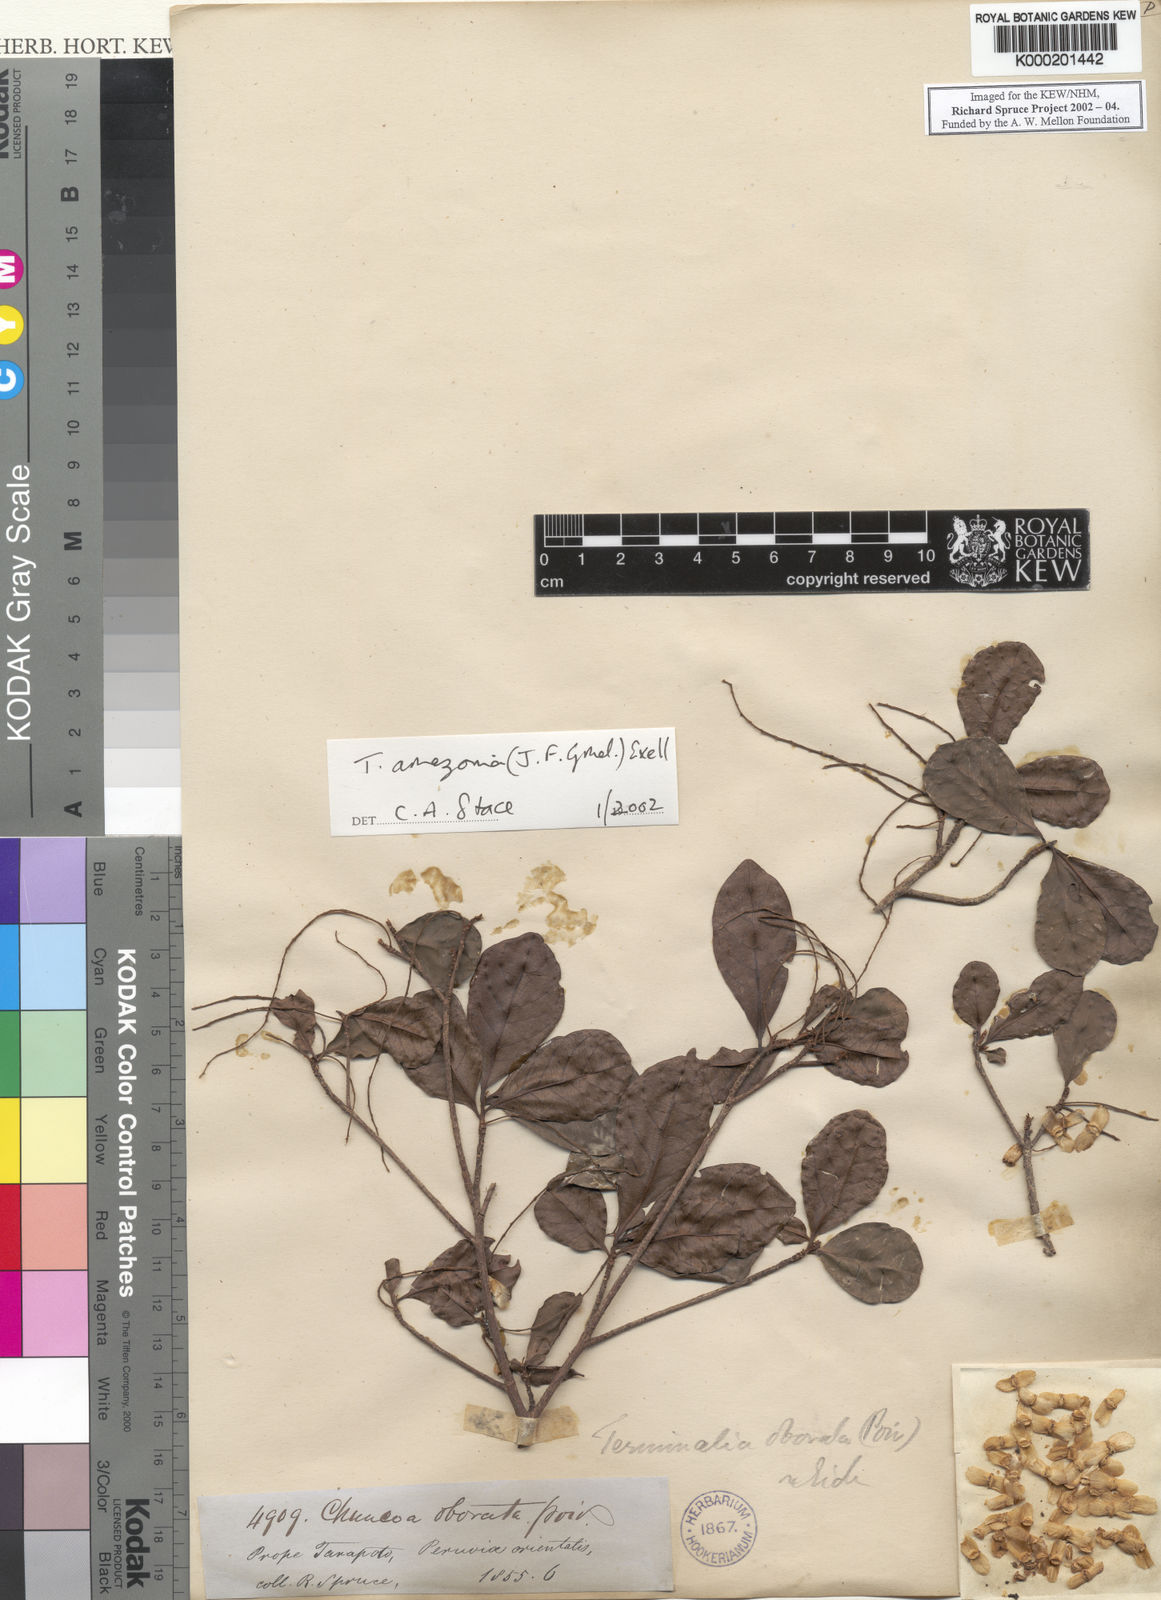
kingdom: Plantae
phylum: Tracheophyta
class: Magnoliopsida
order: Myrtales
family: Combretaceae
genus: Terminalia
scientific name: Terminalia amazonica
